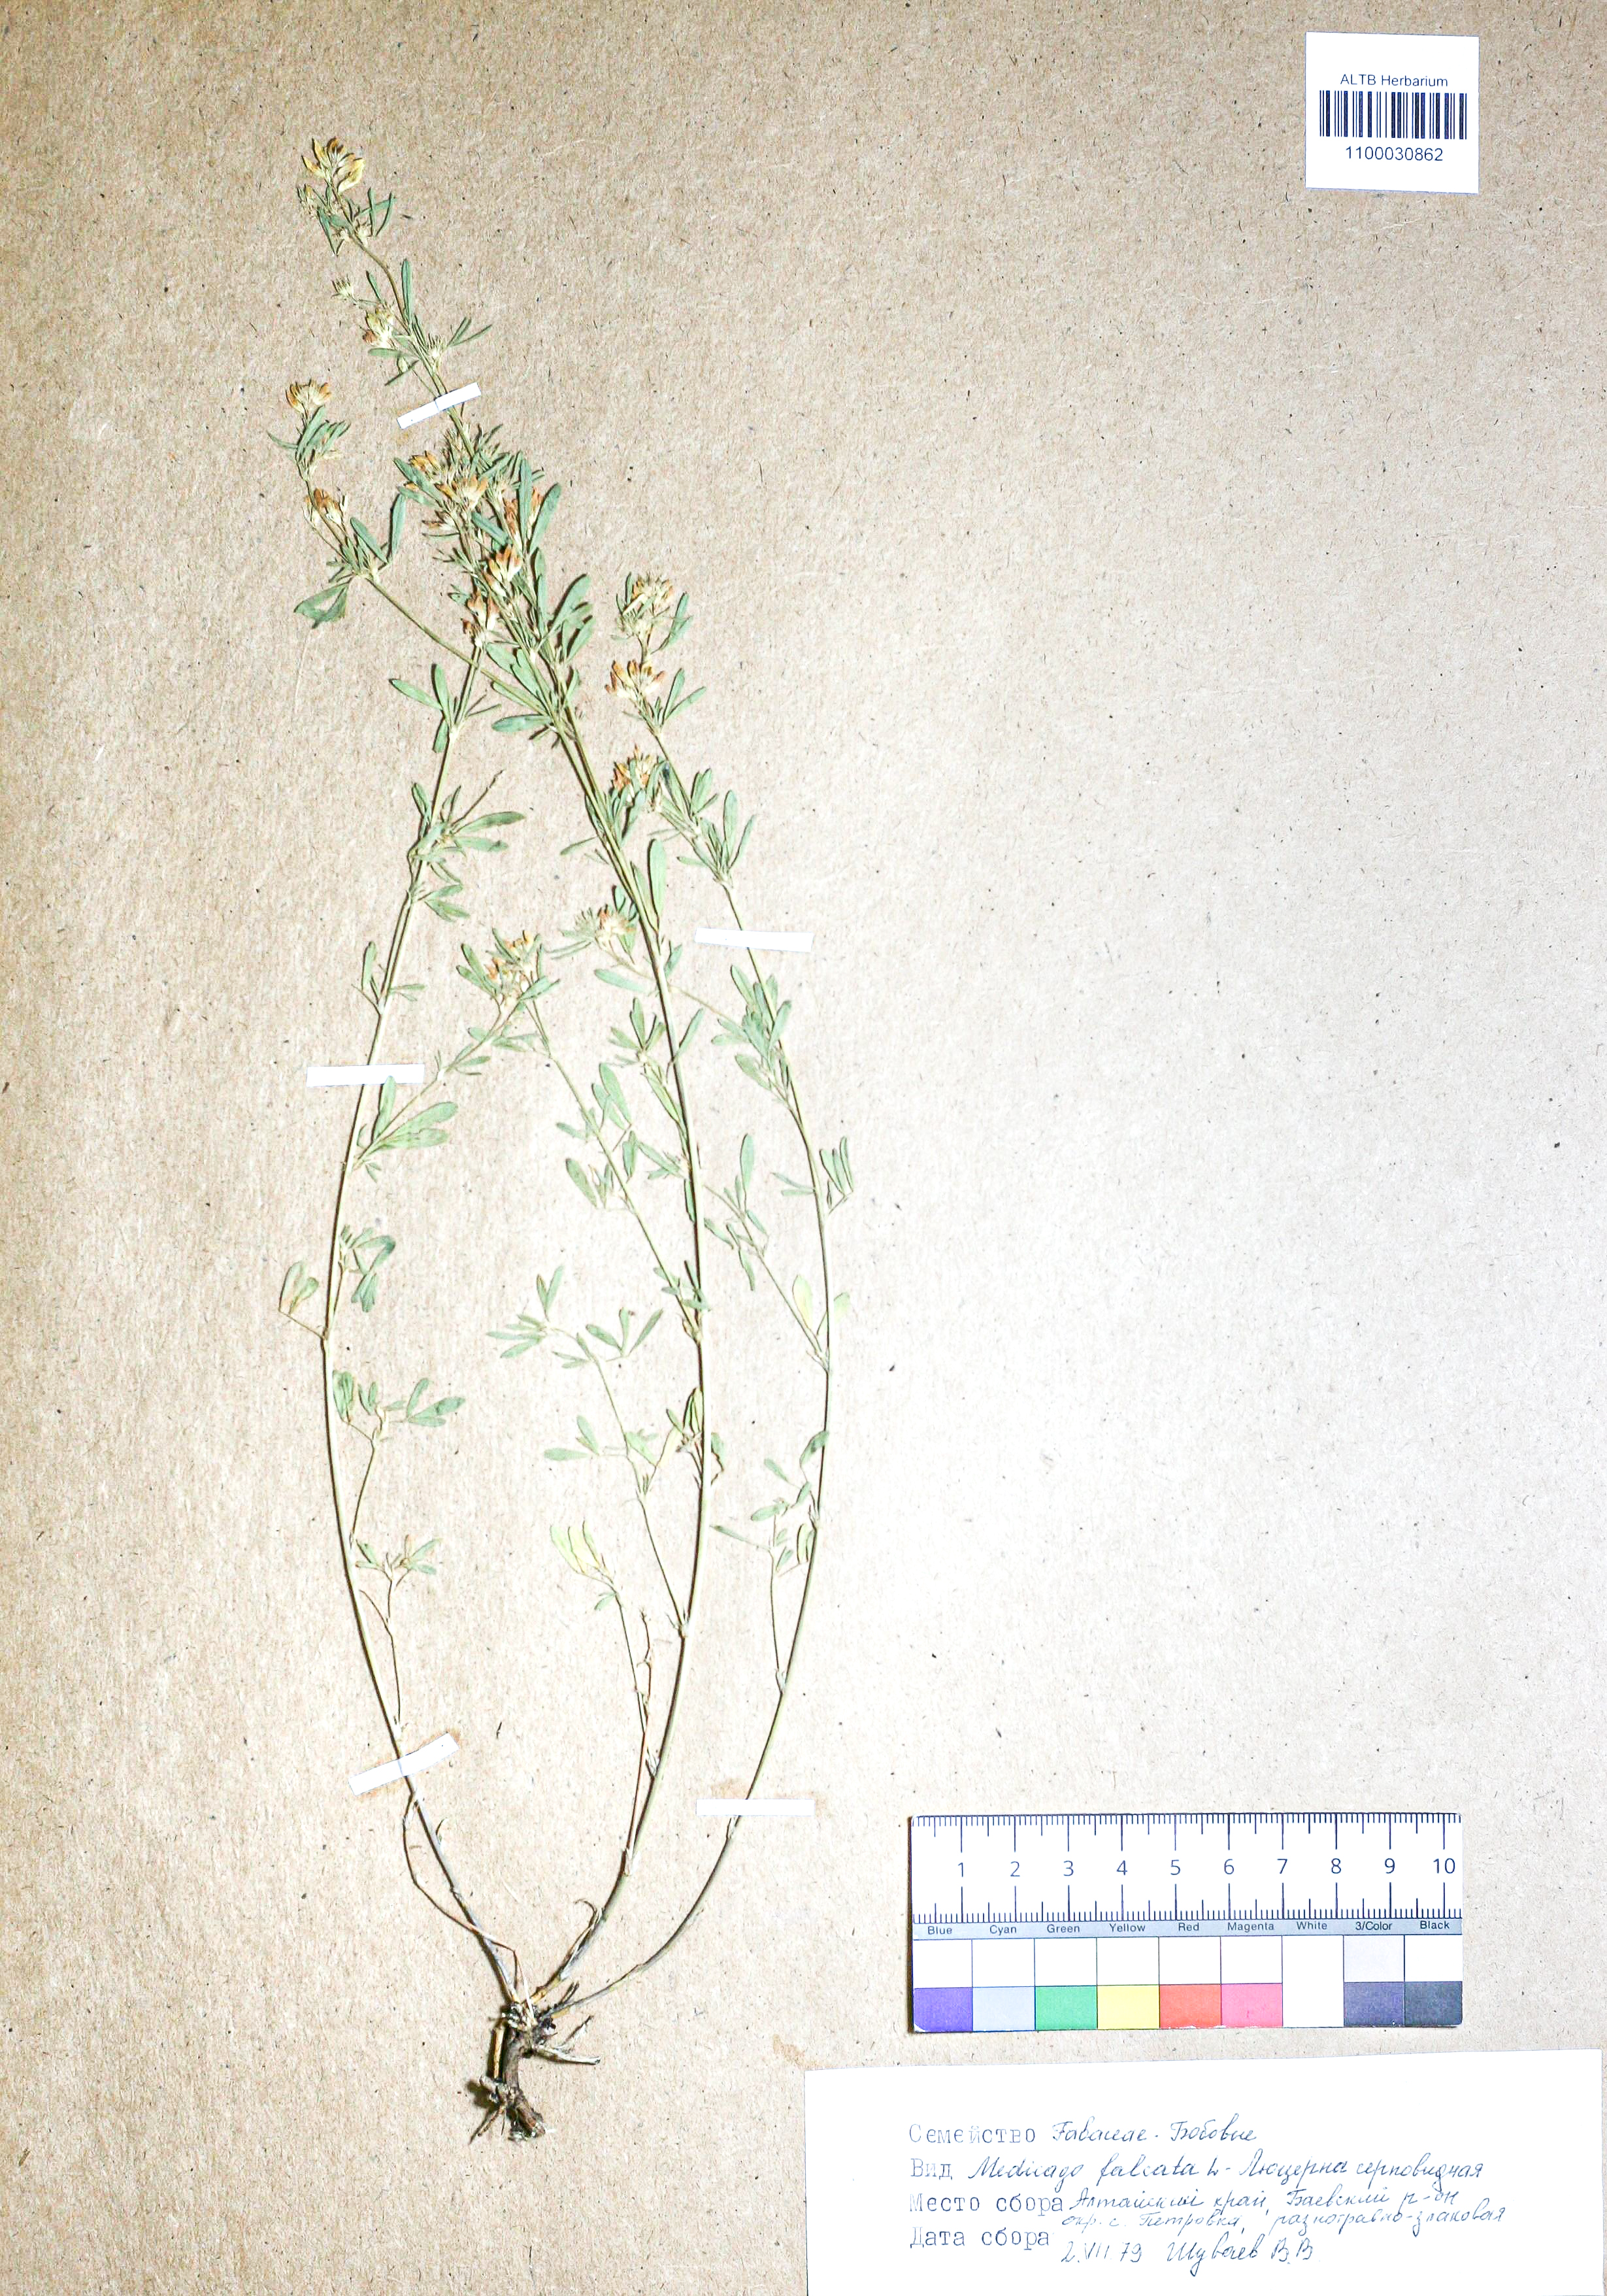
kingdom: Plantae
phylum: Tracheophyta
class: Magnoliopsida
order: Fabales
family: Fabaceae
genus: Medicago
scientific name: Medicago falcata
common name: Sickle medick
